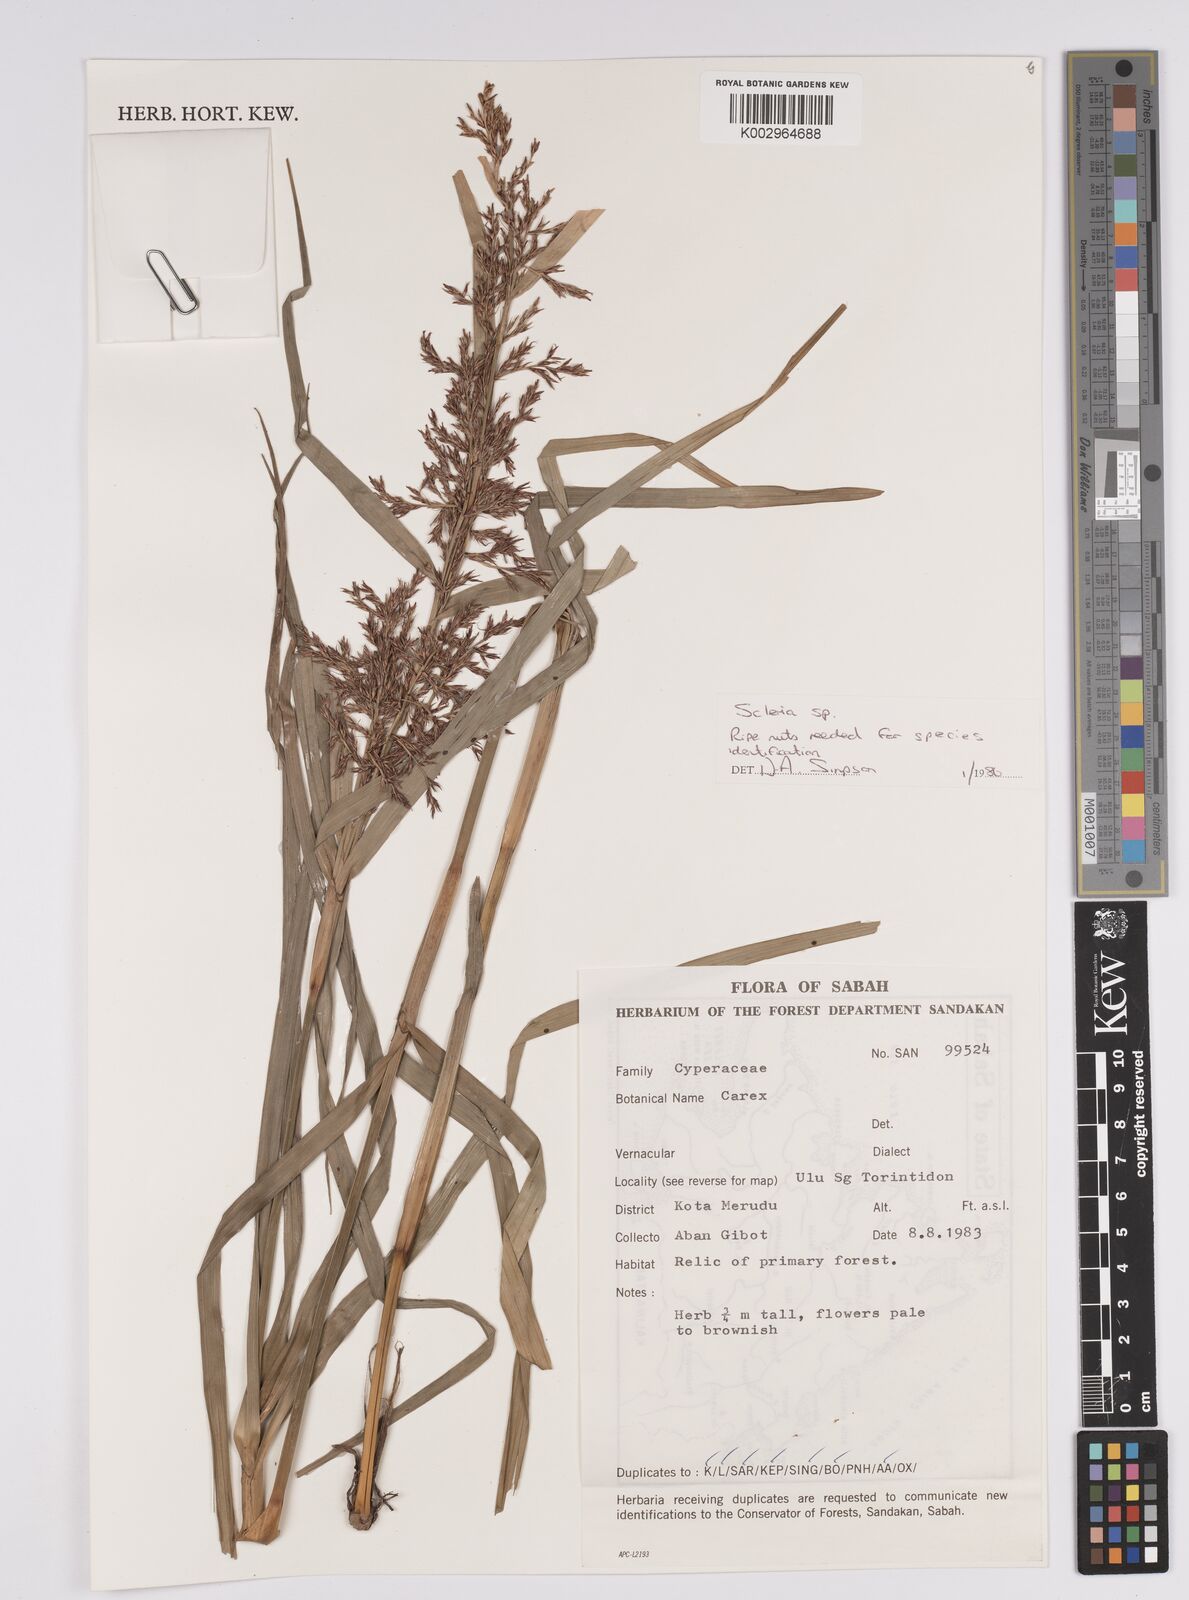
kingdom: Plantae
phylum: Tracheophyta
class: Liliopsida
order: Poales
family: Cyperaceae
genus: Scleria
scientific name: Scleria
